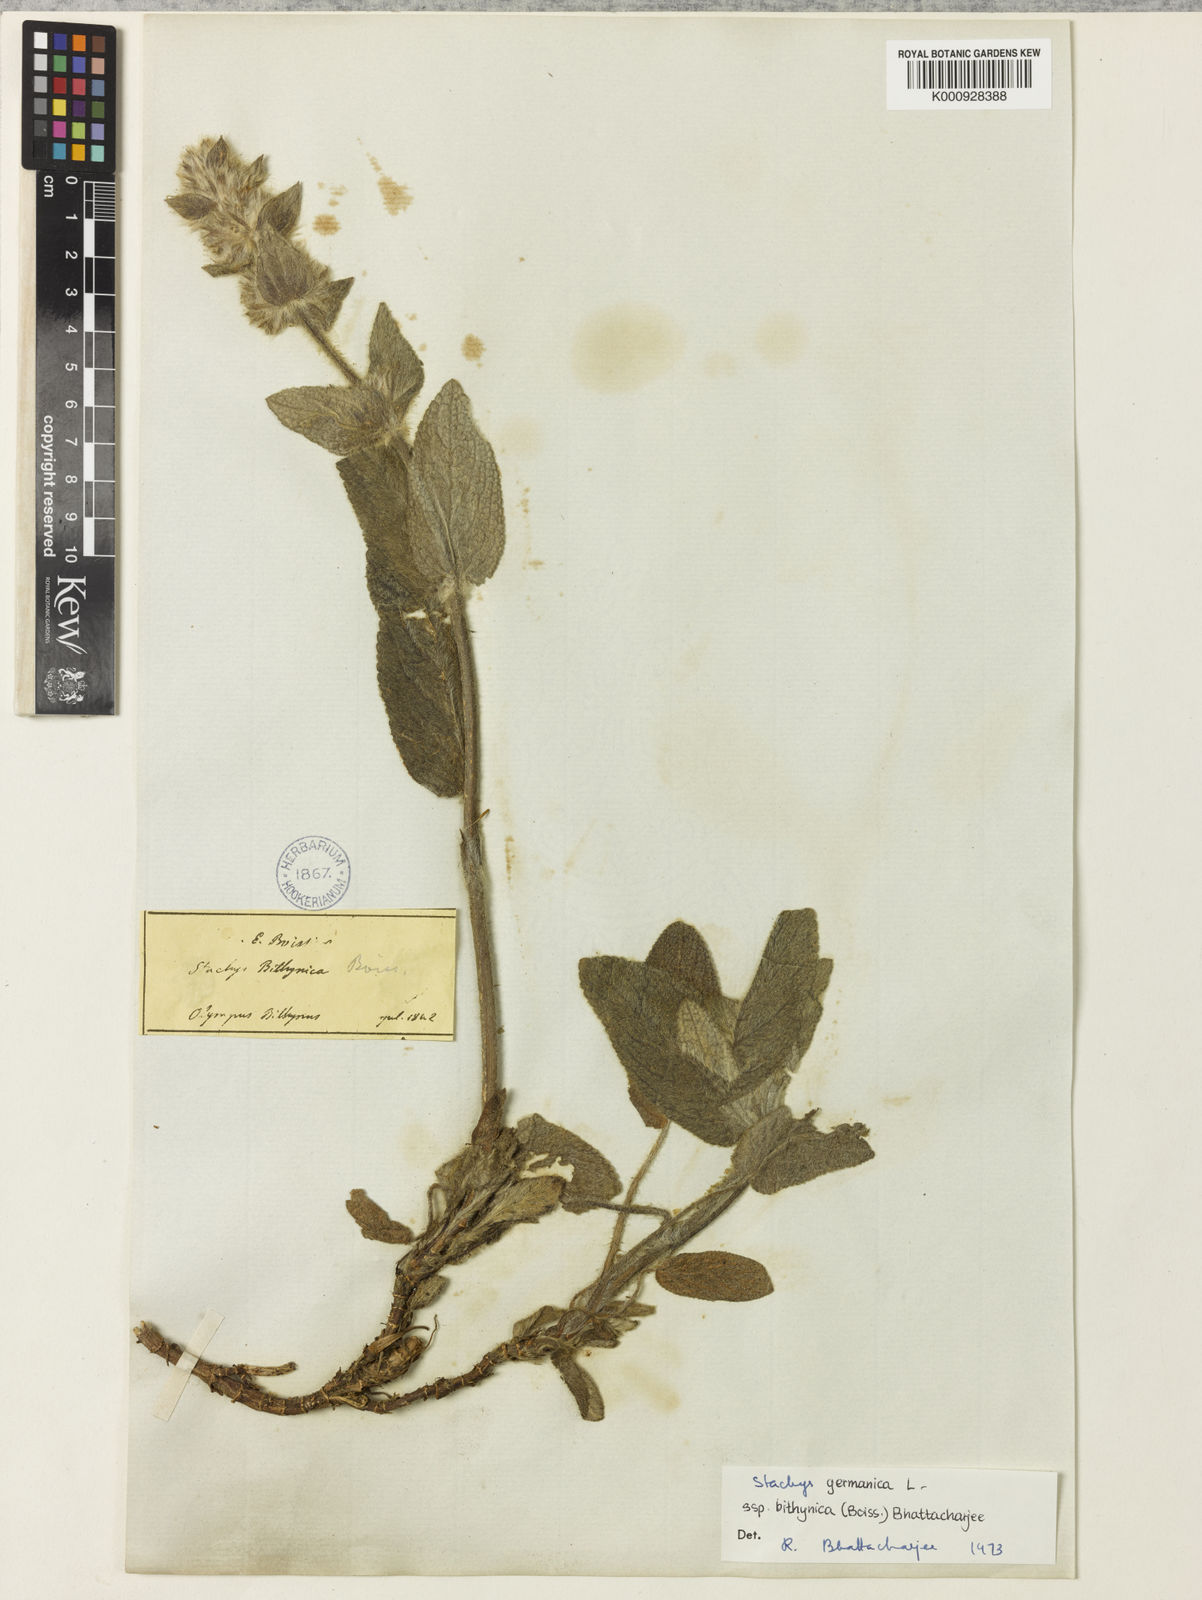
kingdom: Plantae
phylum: Tracheophyta
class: Magnoliopsida
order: Lamiales
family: Lamiaceae
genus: Stachys
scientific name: Stachys bithynica
